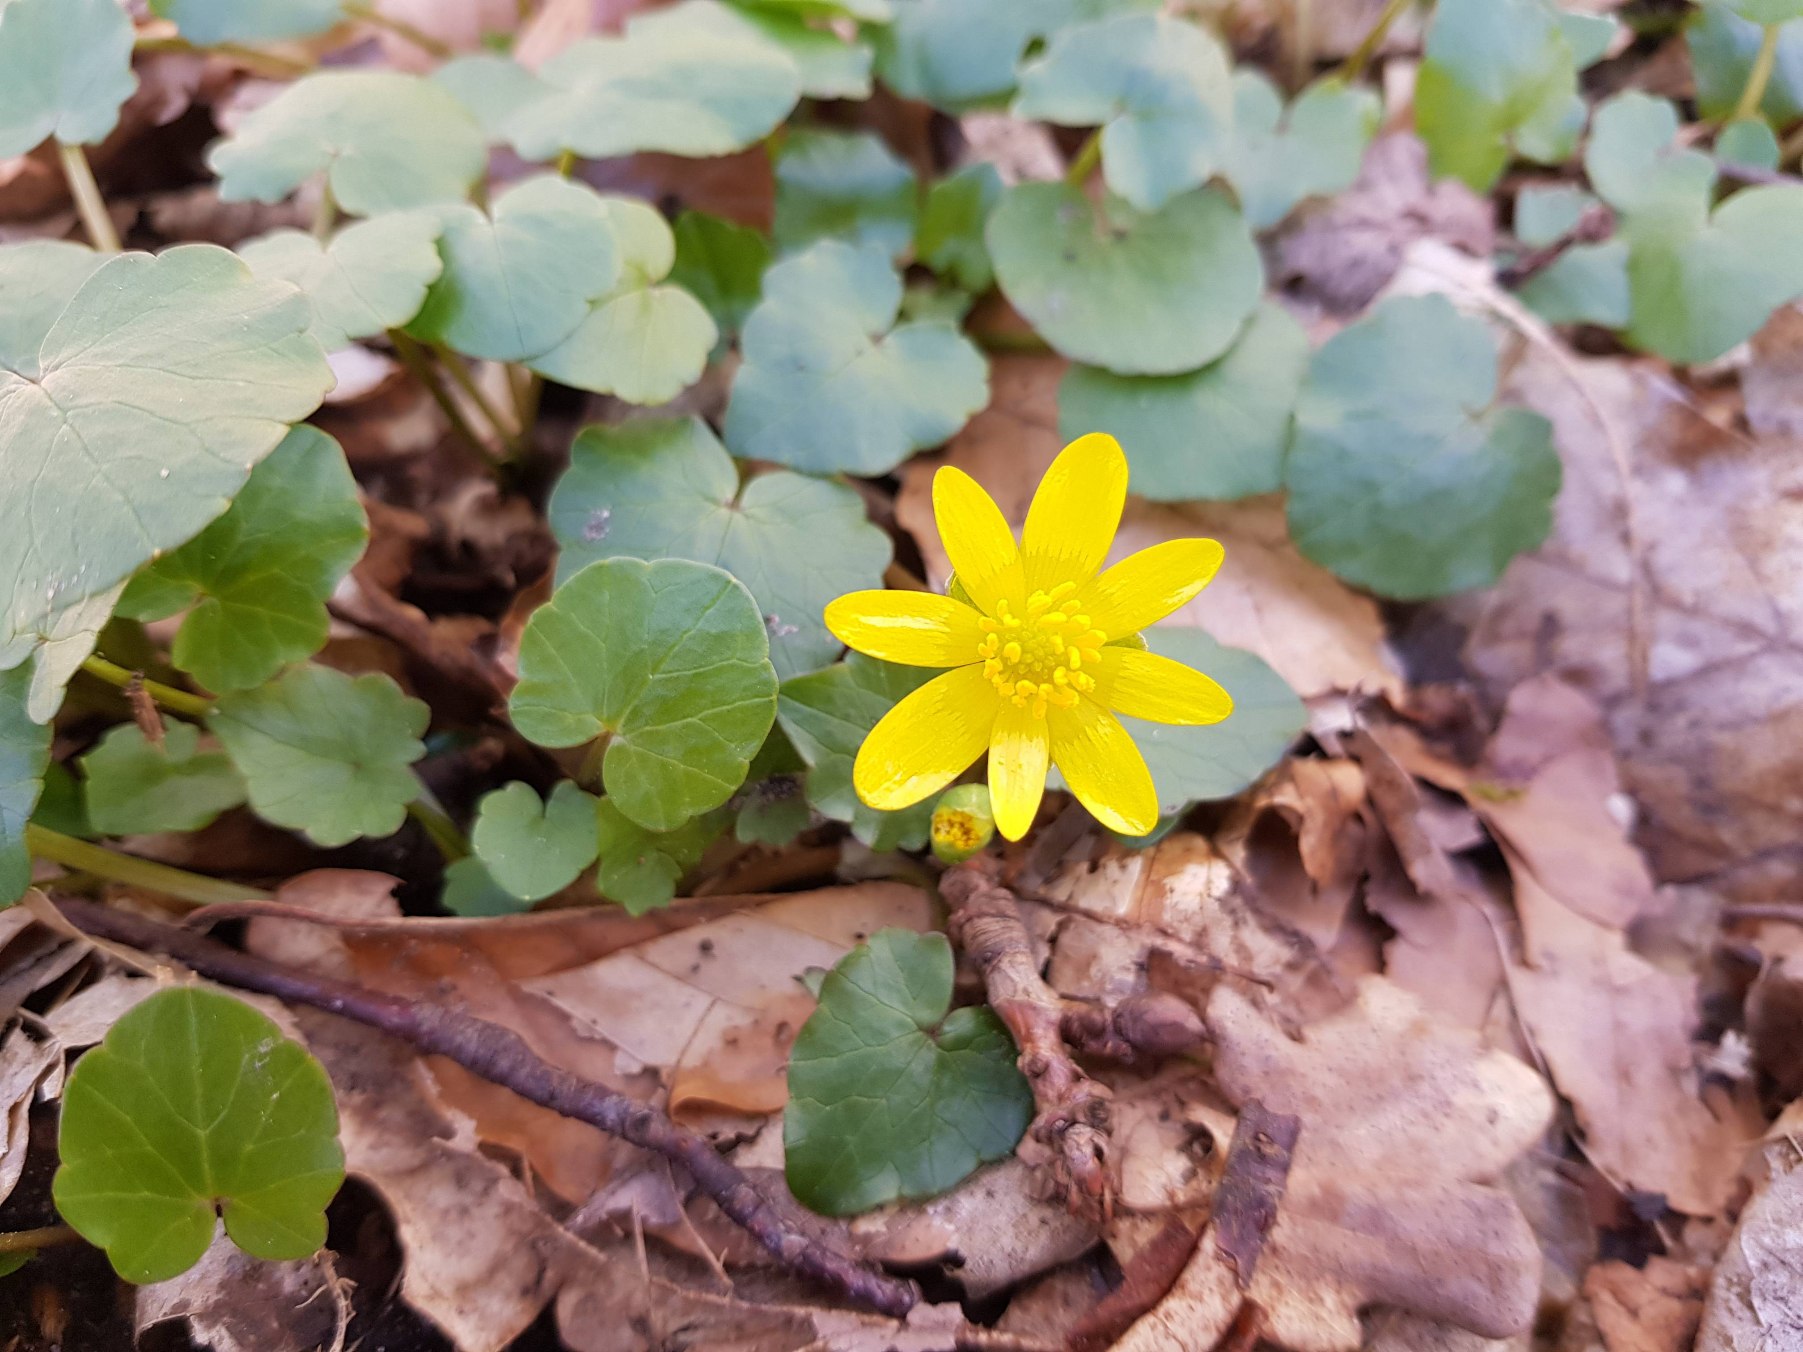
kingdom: Plantae
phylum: Tracheophyta
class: Magnoliopsida
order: Ranunculales
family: Ranunculaceae
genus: Ficaria
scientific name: Ficaria verna
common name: Vorterod
